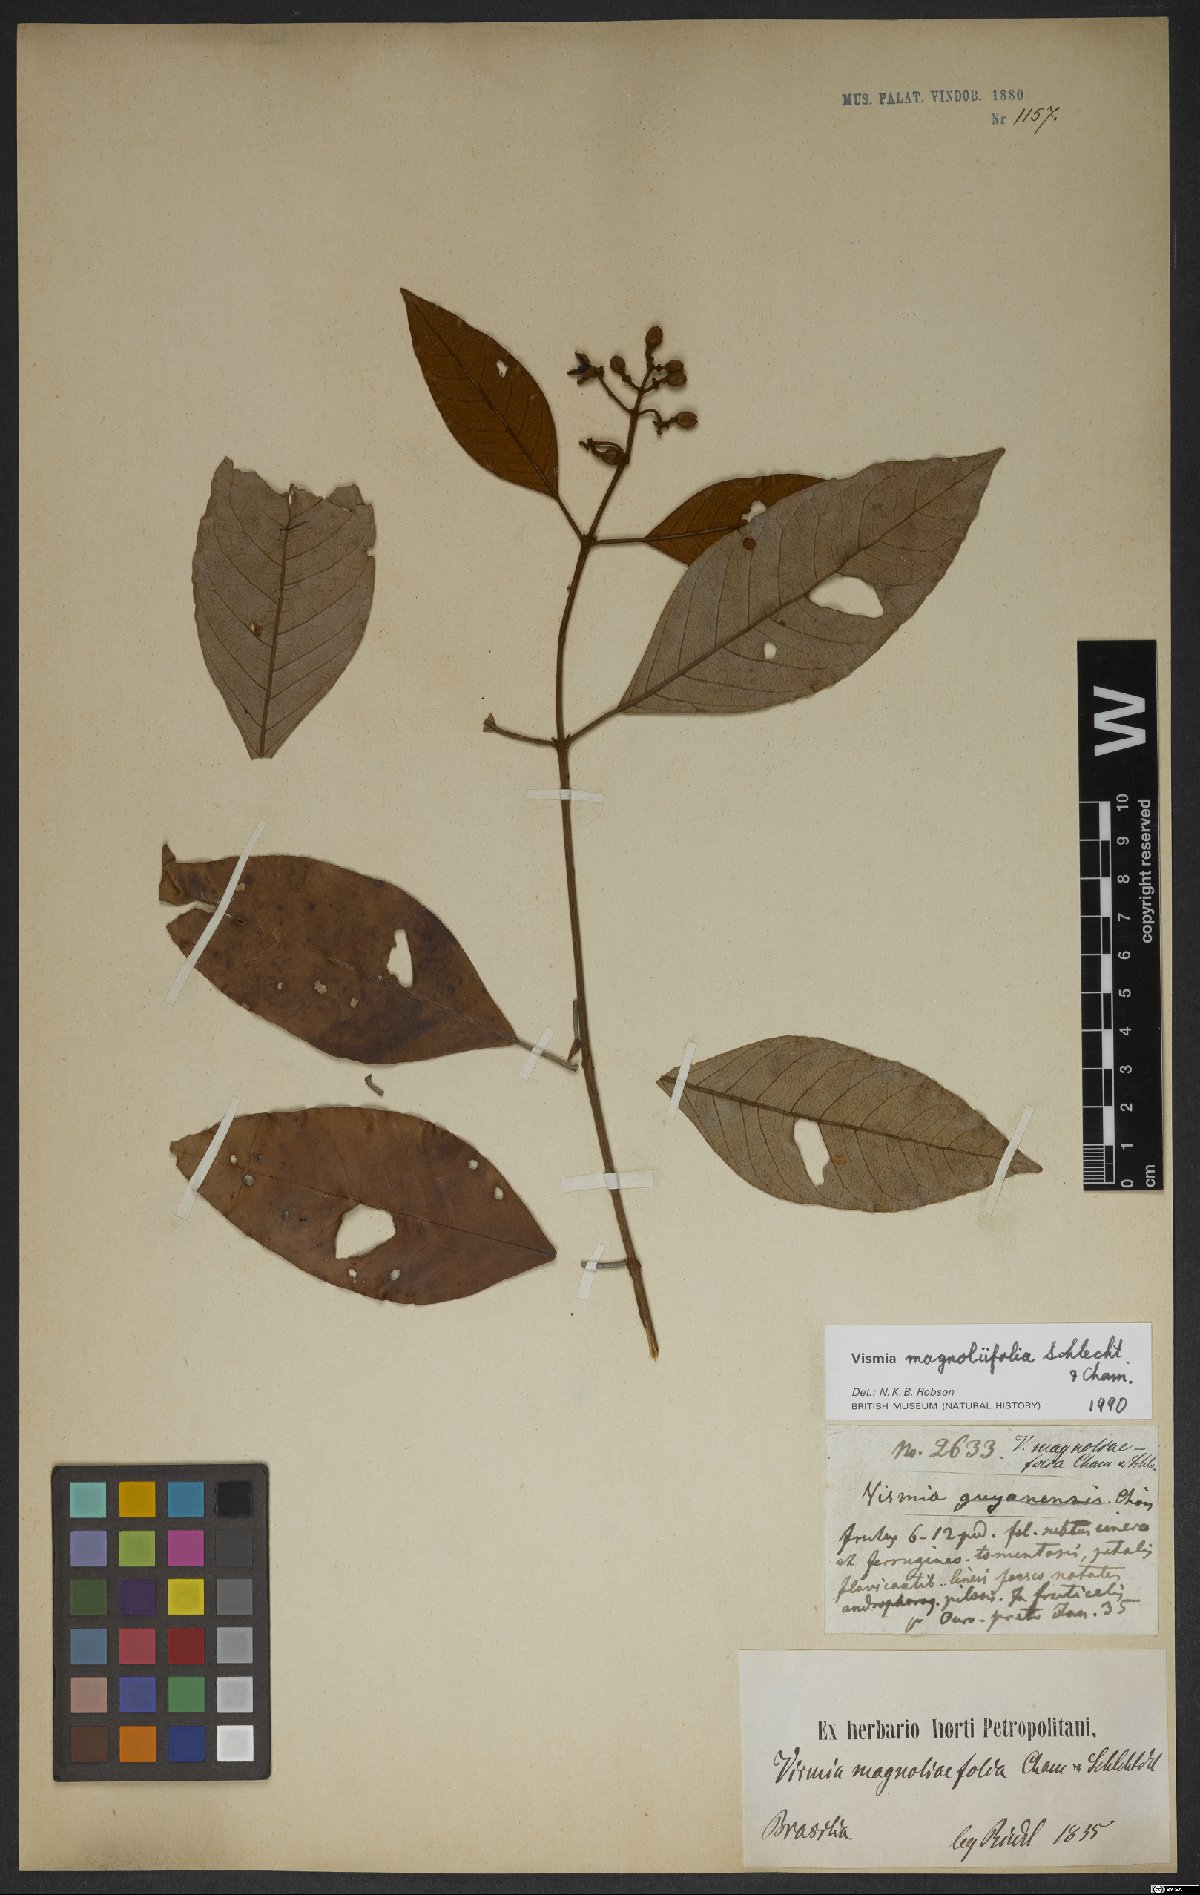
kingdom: Plantae
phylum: Tracheophyta
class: Magnoliopsida
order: Malpighiales
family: Hypericaceae
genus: Vismia
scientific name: Vismia martiana
